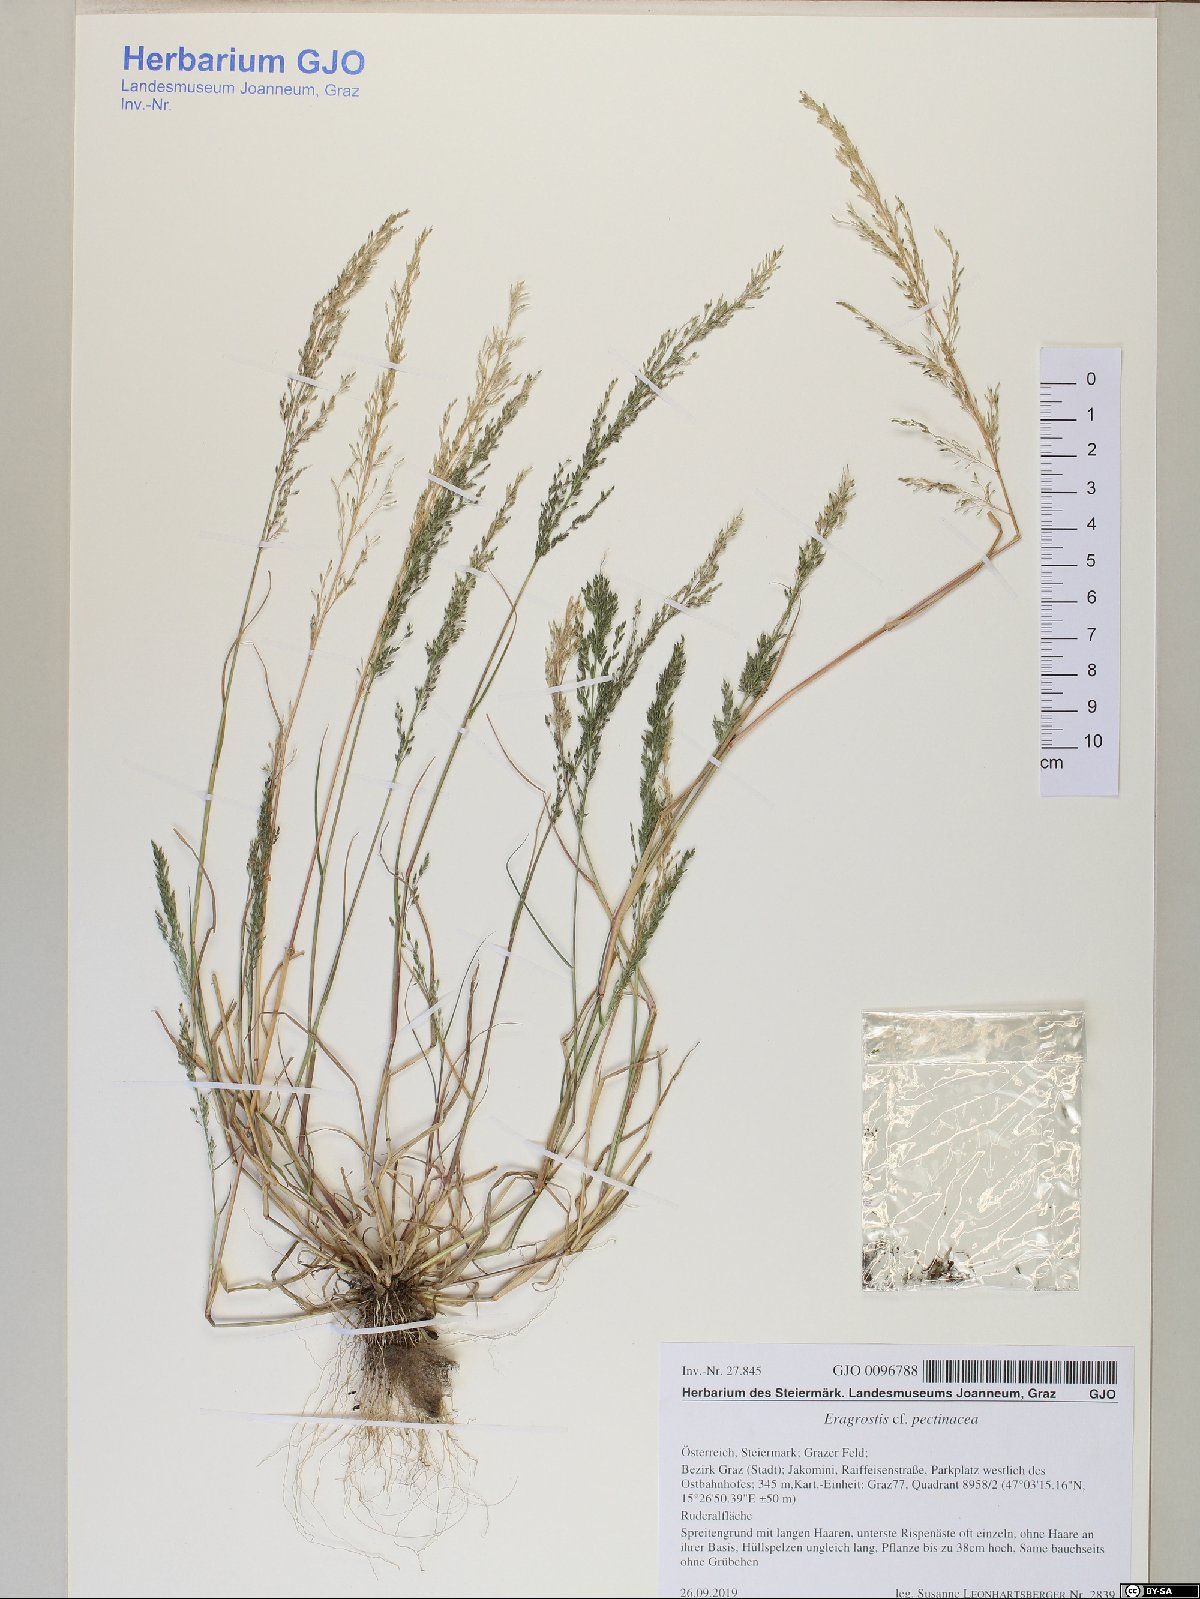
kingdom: Plantae
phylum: Tracheophyta
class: Liliopsida
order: Poales
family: Poaceae
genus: Eragrostis
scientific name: Eragrostis pilosa
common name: Indian lovegrass
